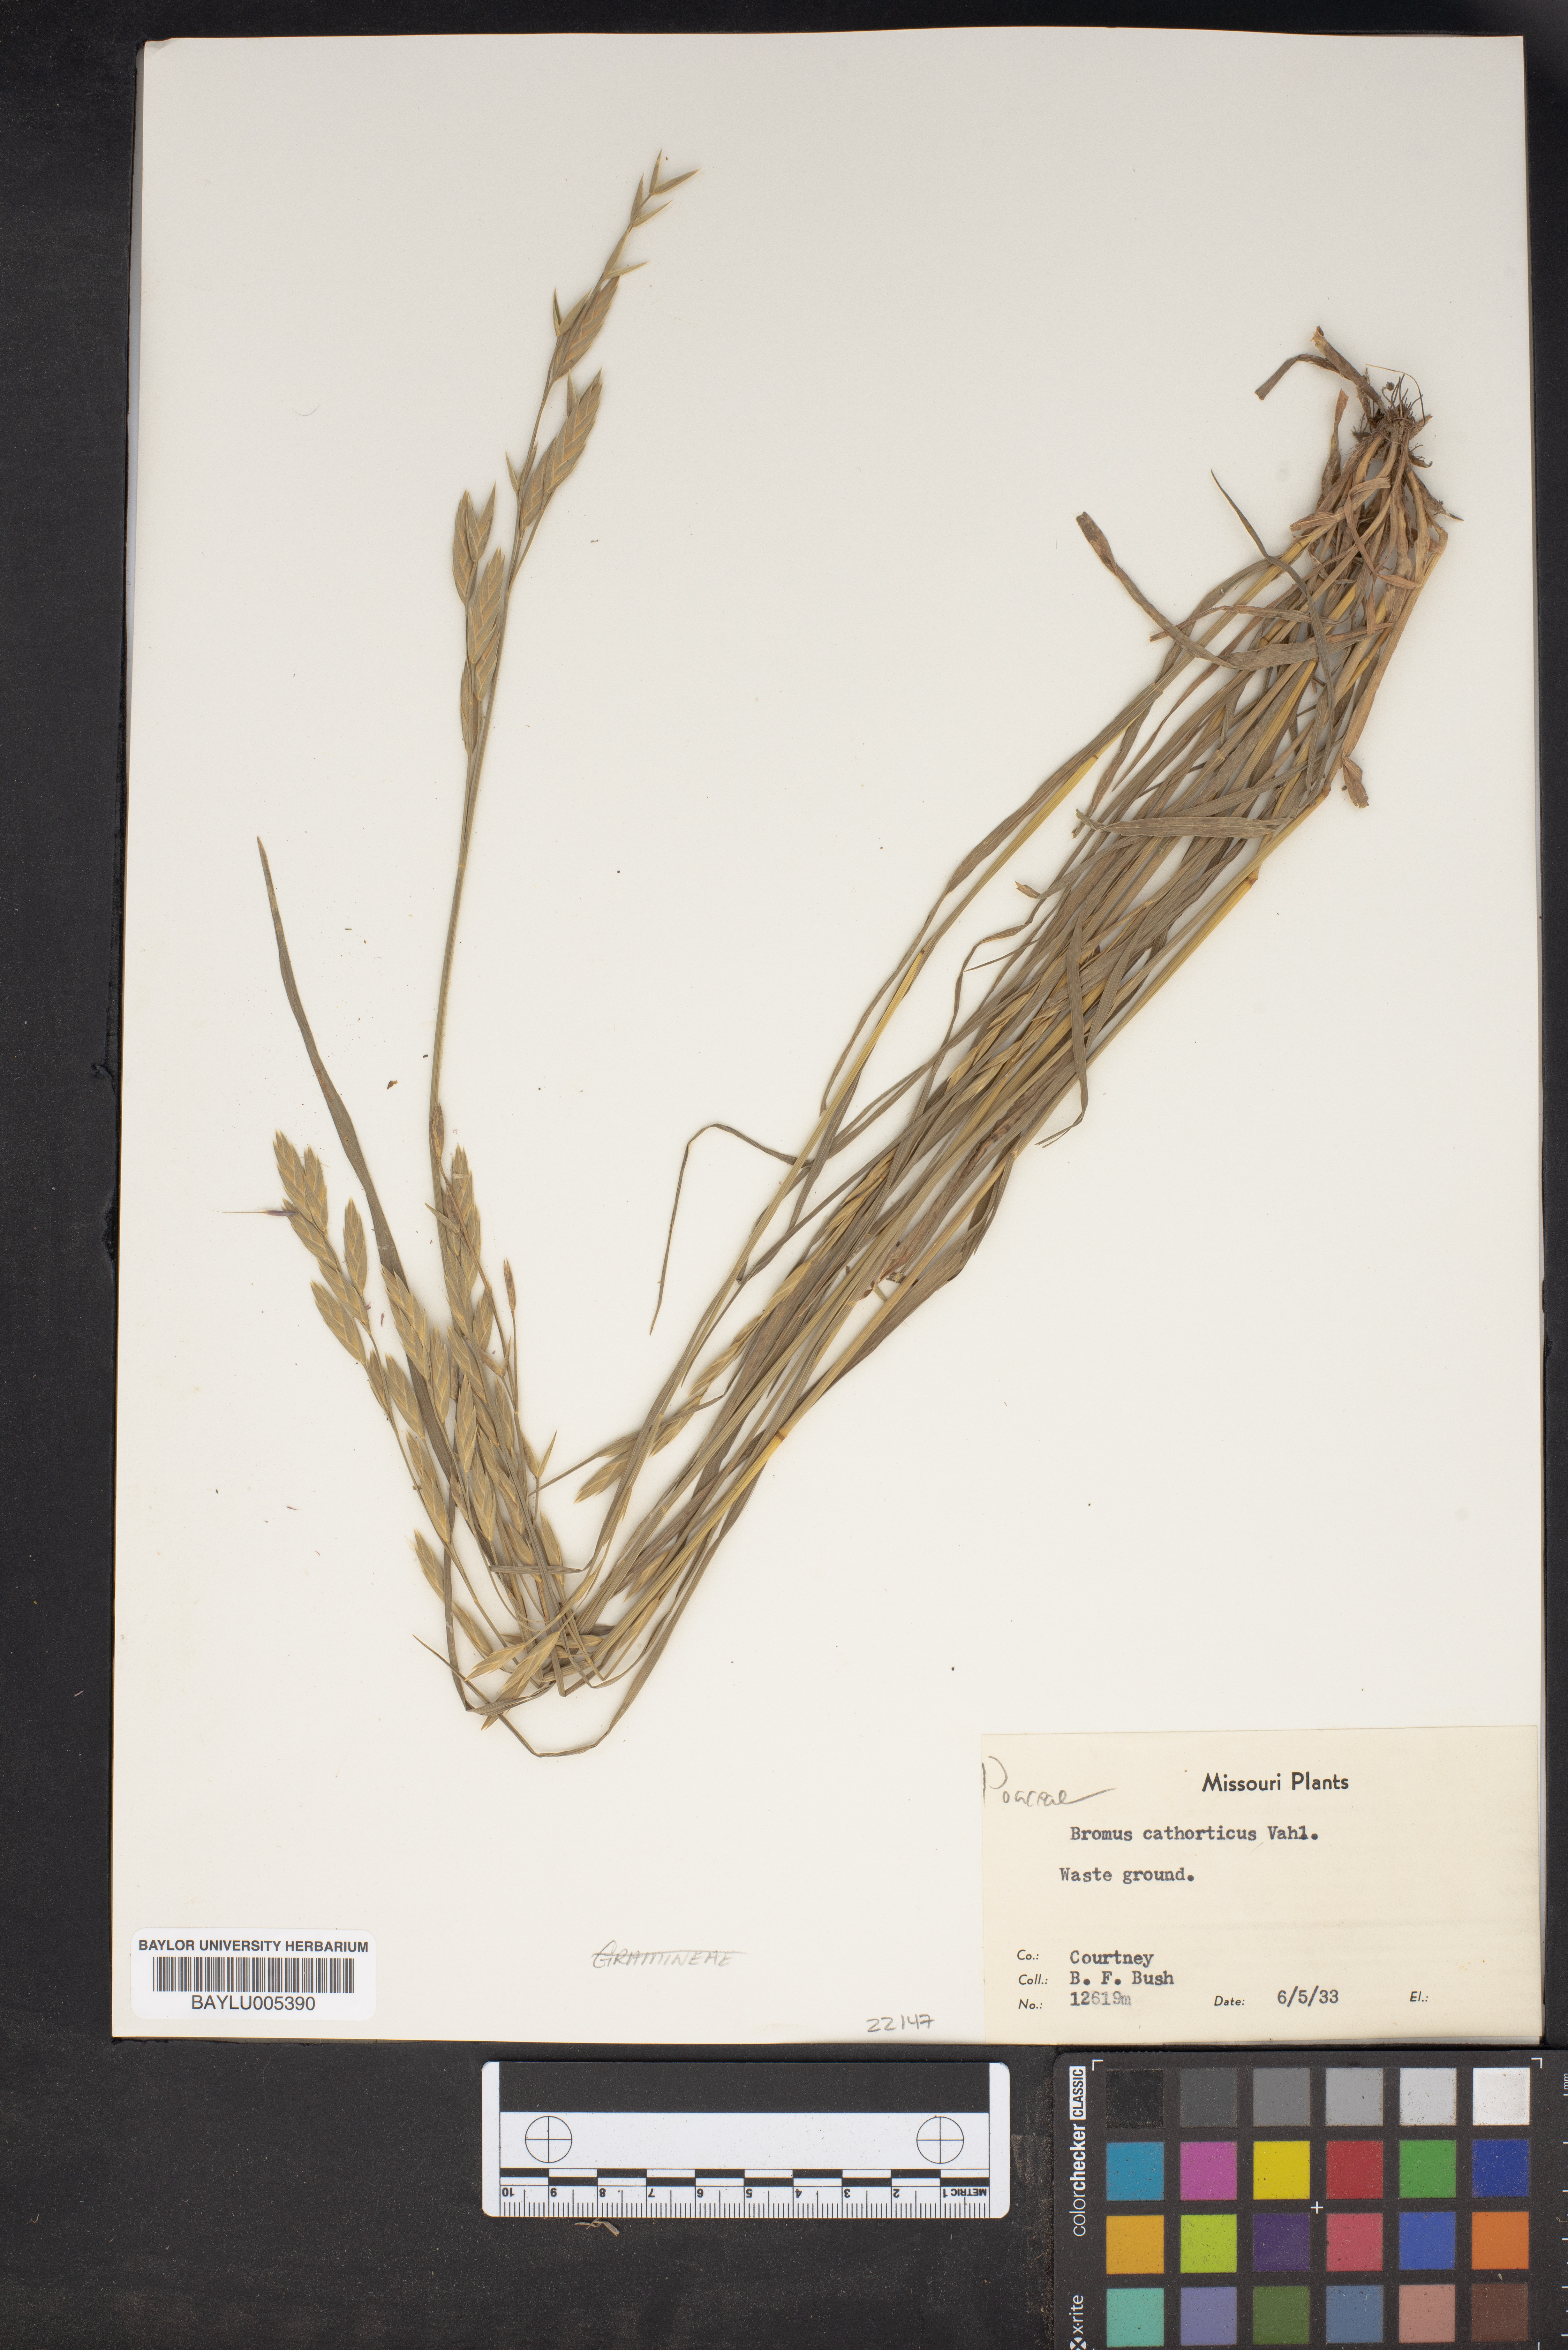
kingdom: Plantae
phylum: Tracheophyta
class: Liliopsida
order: Poales
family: Poaceae
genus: Bromus
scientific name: Bromus catharticus
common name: Rescuegrass
